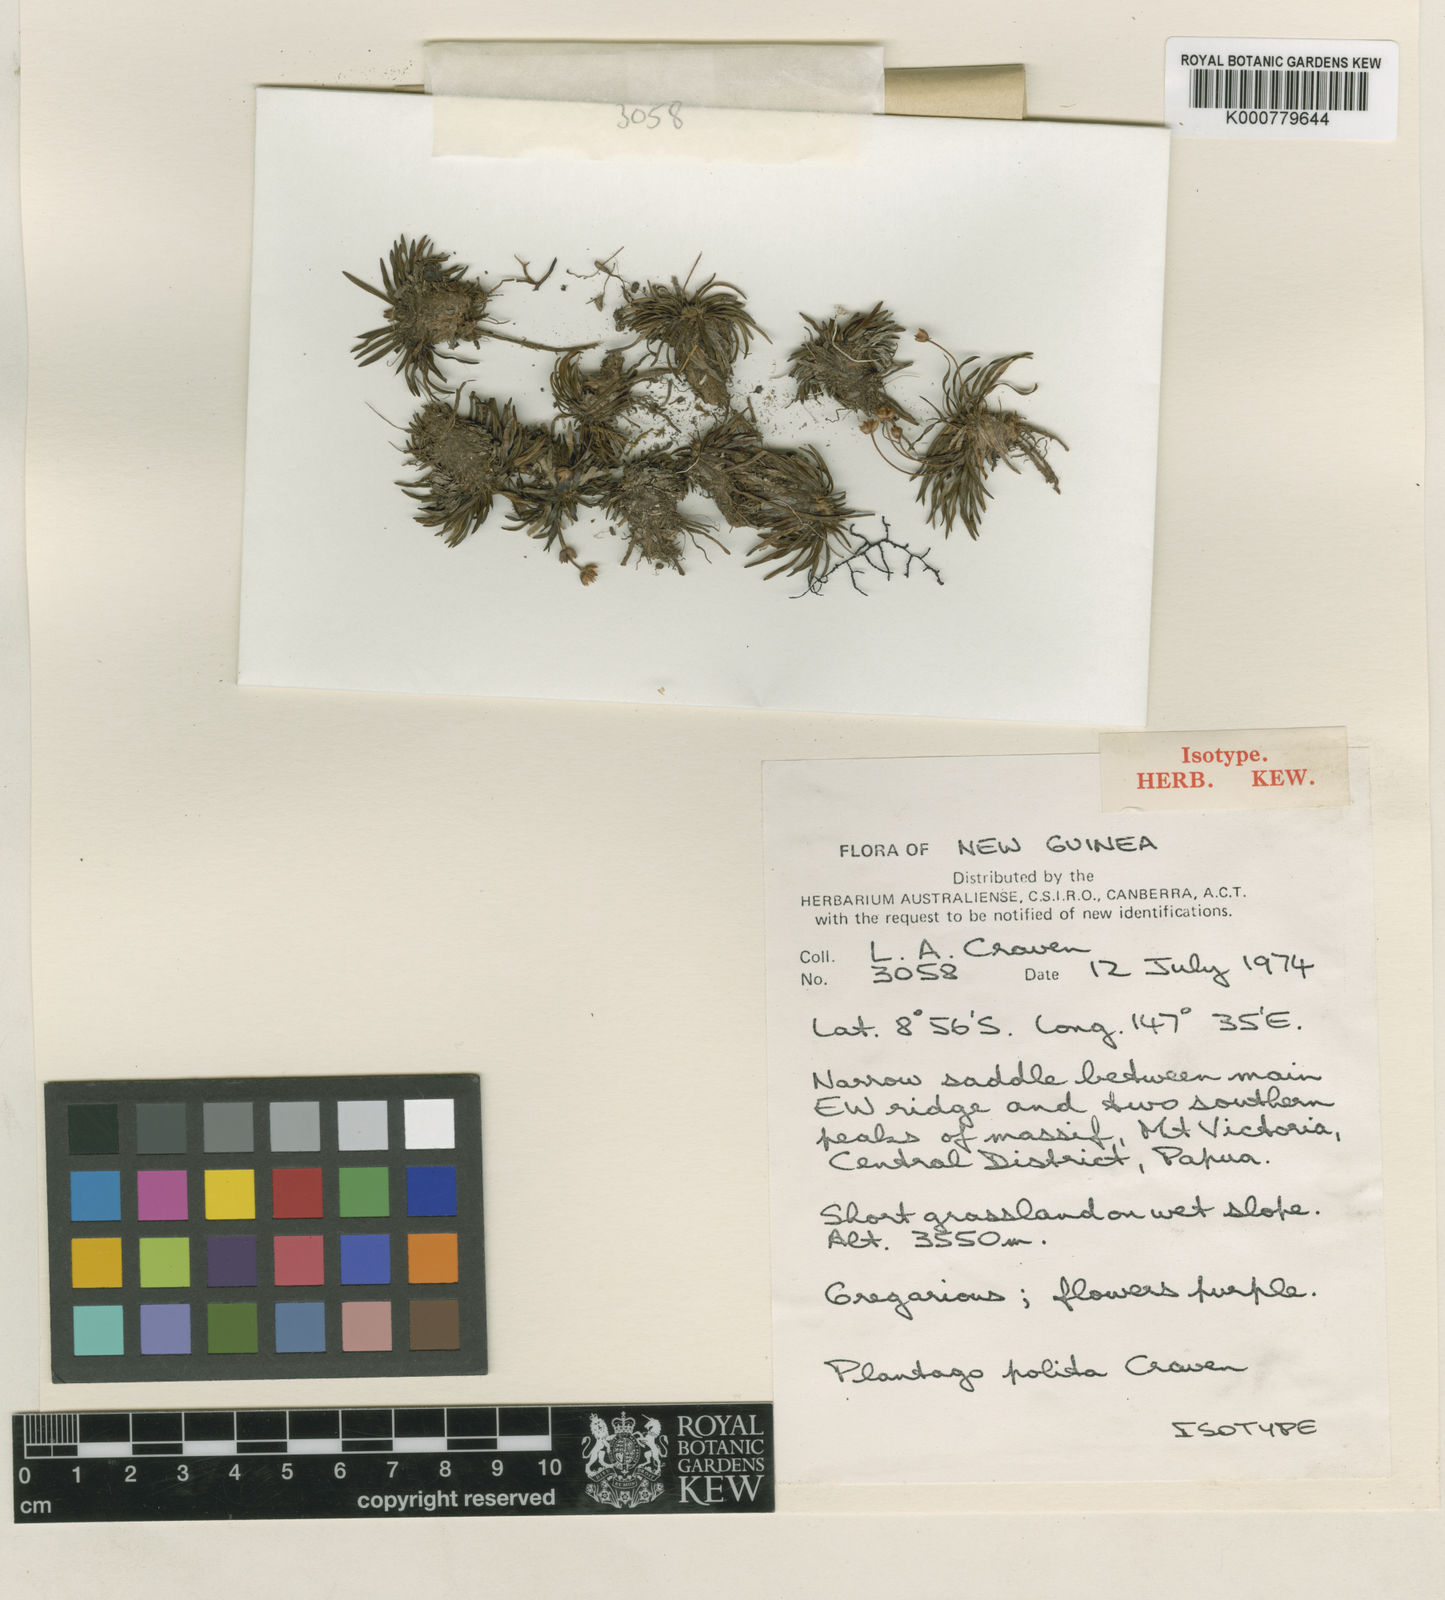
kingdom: Plantae
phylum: Tracheophyta
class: Magnoliopsida
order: Lamiales
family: Plantaginaceae
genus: Plantago
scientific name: Plantago polita
